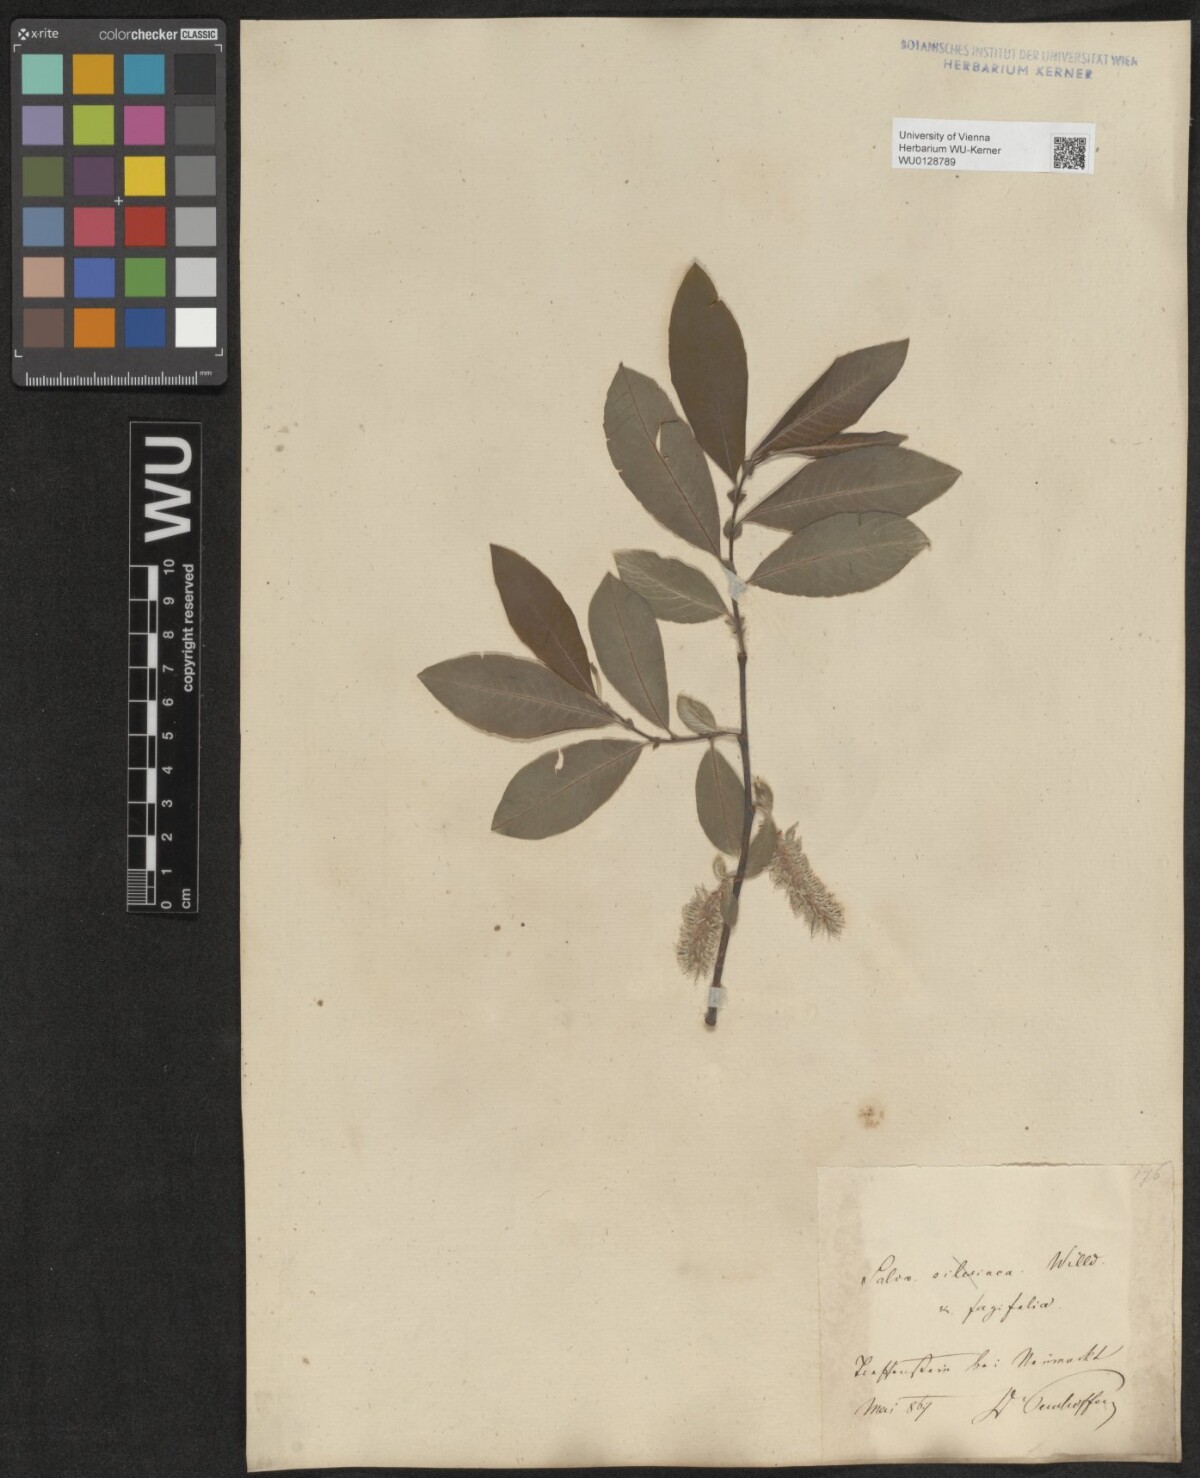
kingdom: Plantae
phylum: Tracheophyta
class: Magnoliopsida
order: Malpighiales
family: Salicaceae
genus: Salix
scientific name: Salix appendiculata
